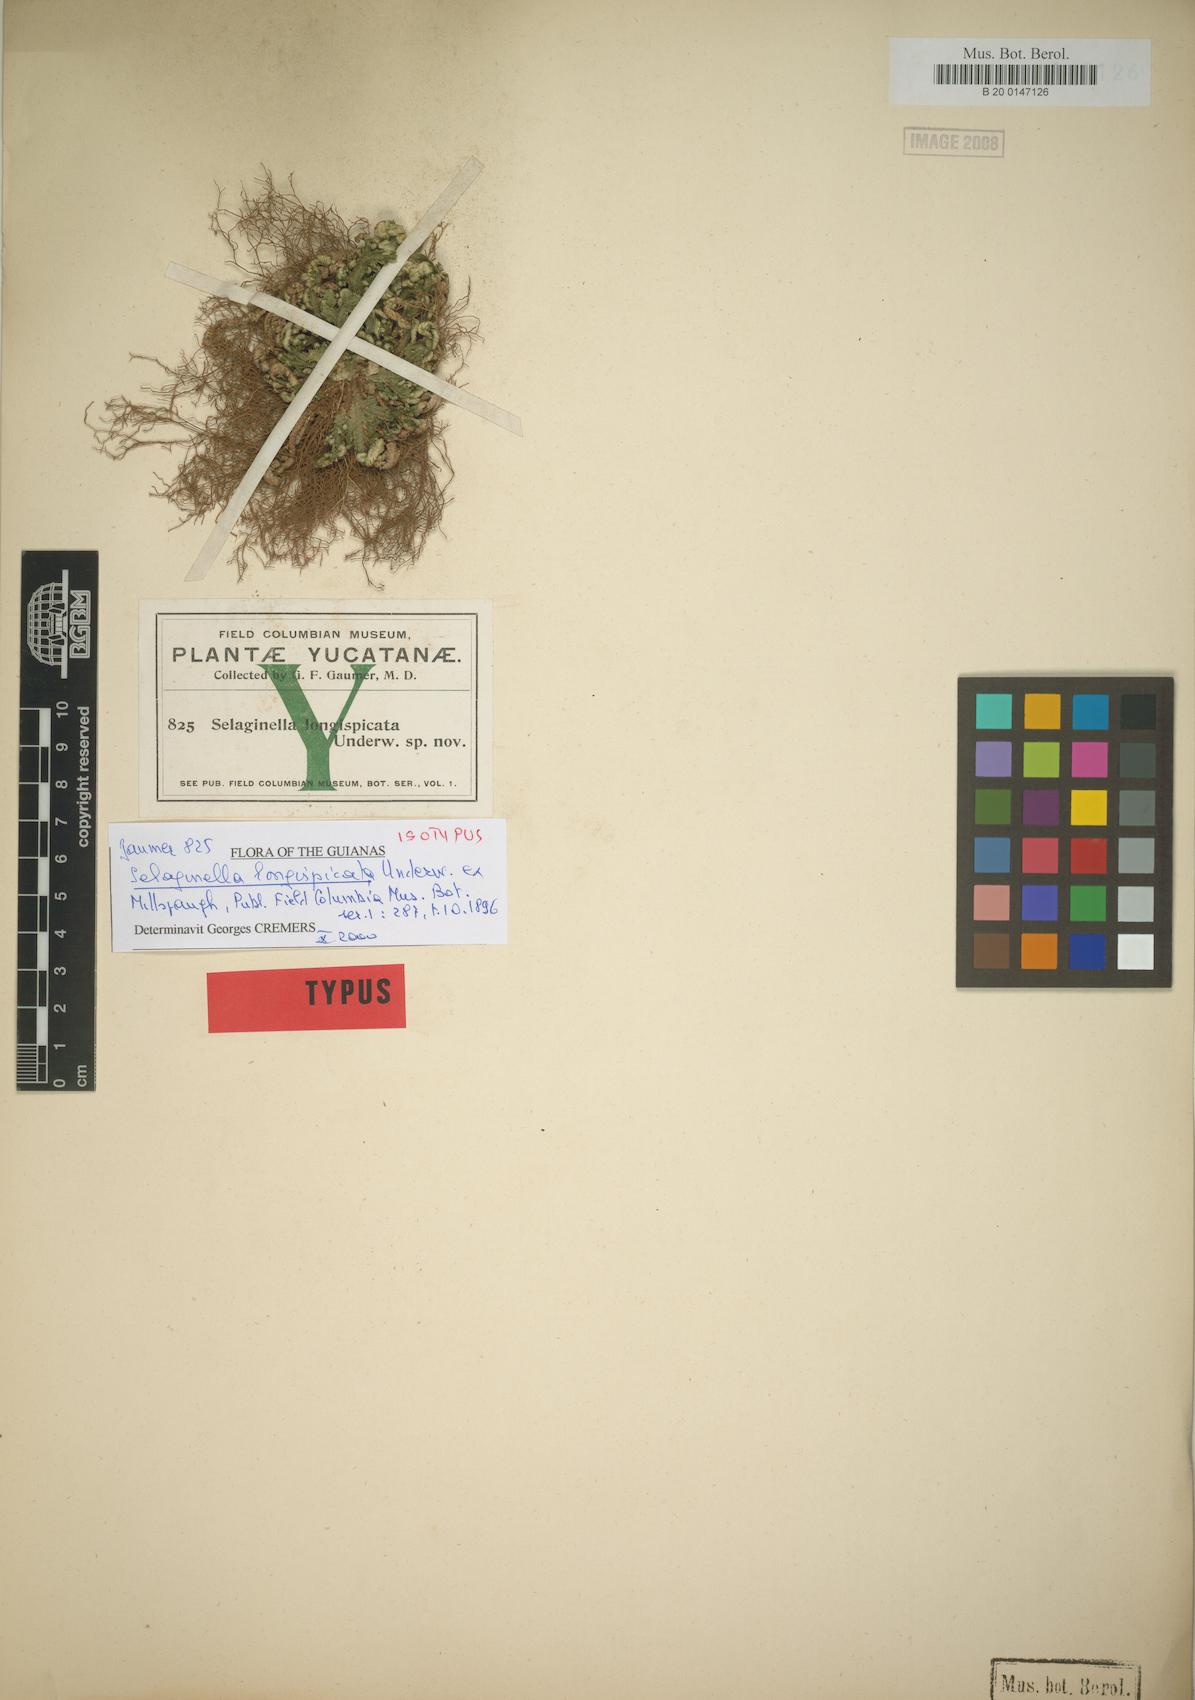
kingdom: Plantae
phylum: Tracheophyta
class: Lycopodiopsida
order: Selaginellales
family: Selaginellaceae
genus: Selaginella
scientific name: Selaginella convoluta
